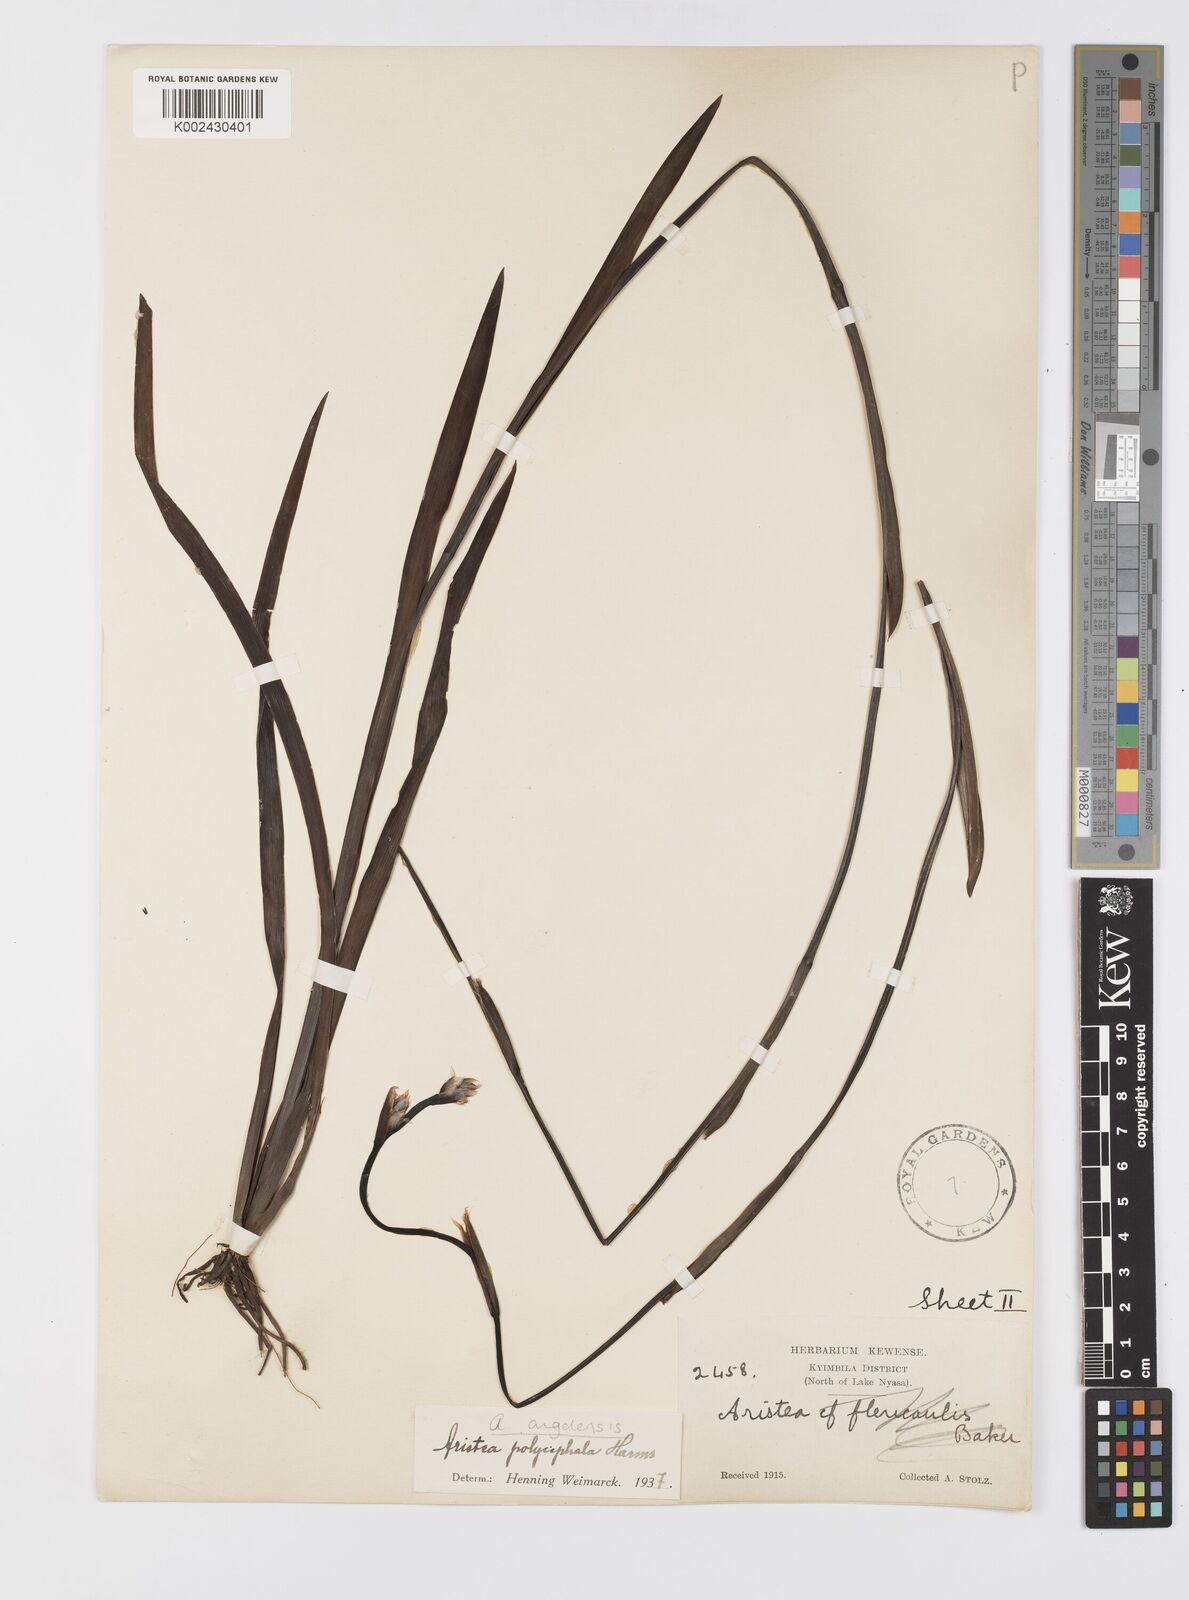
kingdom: Plantae
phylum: Tracheophyta
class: Liliopsida
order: Asparagales
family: Iridaceae
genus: Aristea
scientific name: Aristea angolensis
